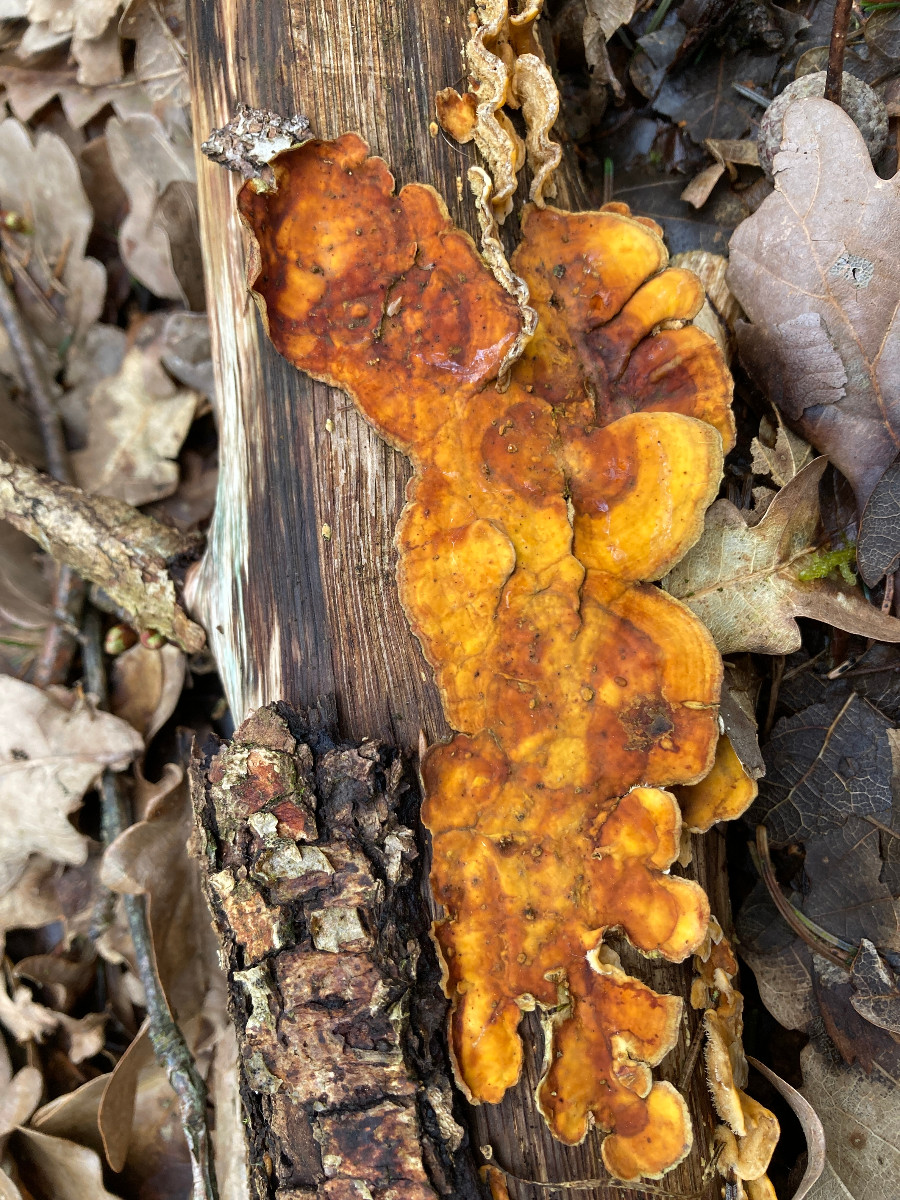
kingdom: Fungi
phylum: Basidiomycota
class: Agaricomycetes
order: Russulales
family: Stereaceae
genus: Stereum
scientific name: Stereum hirsutum
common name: håret lædersvamp
